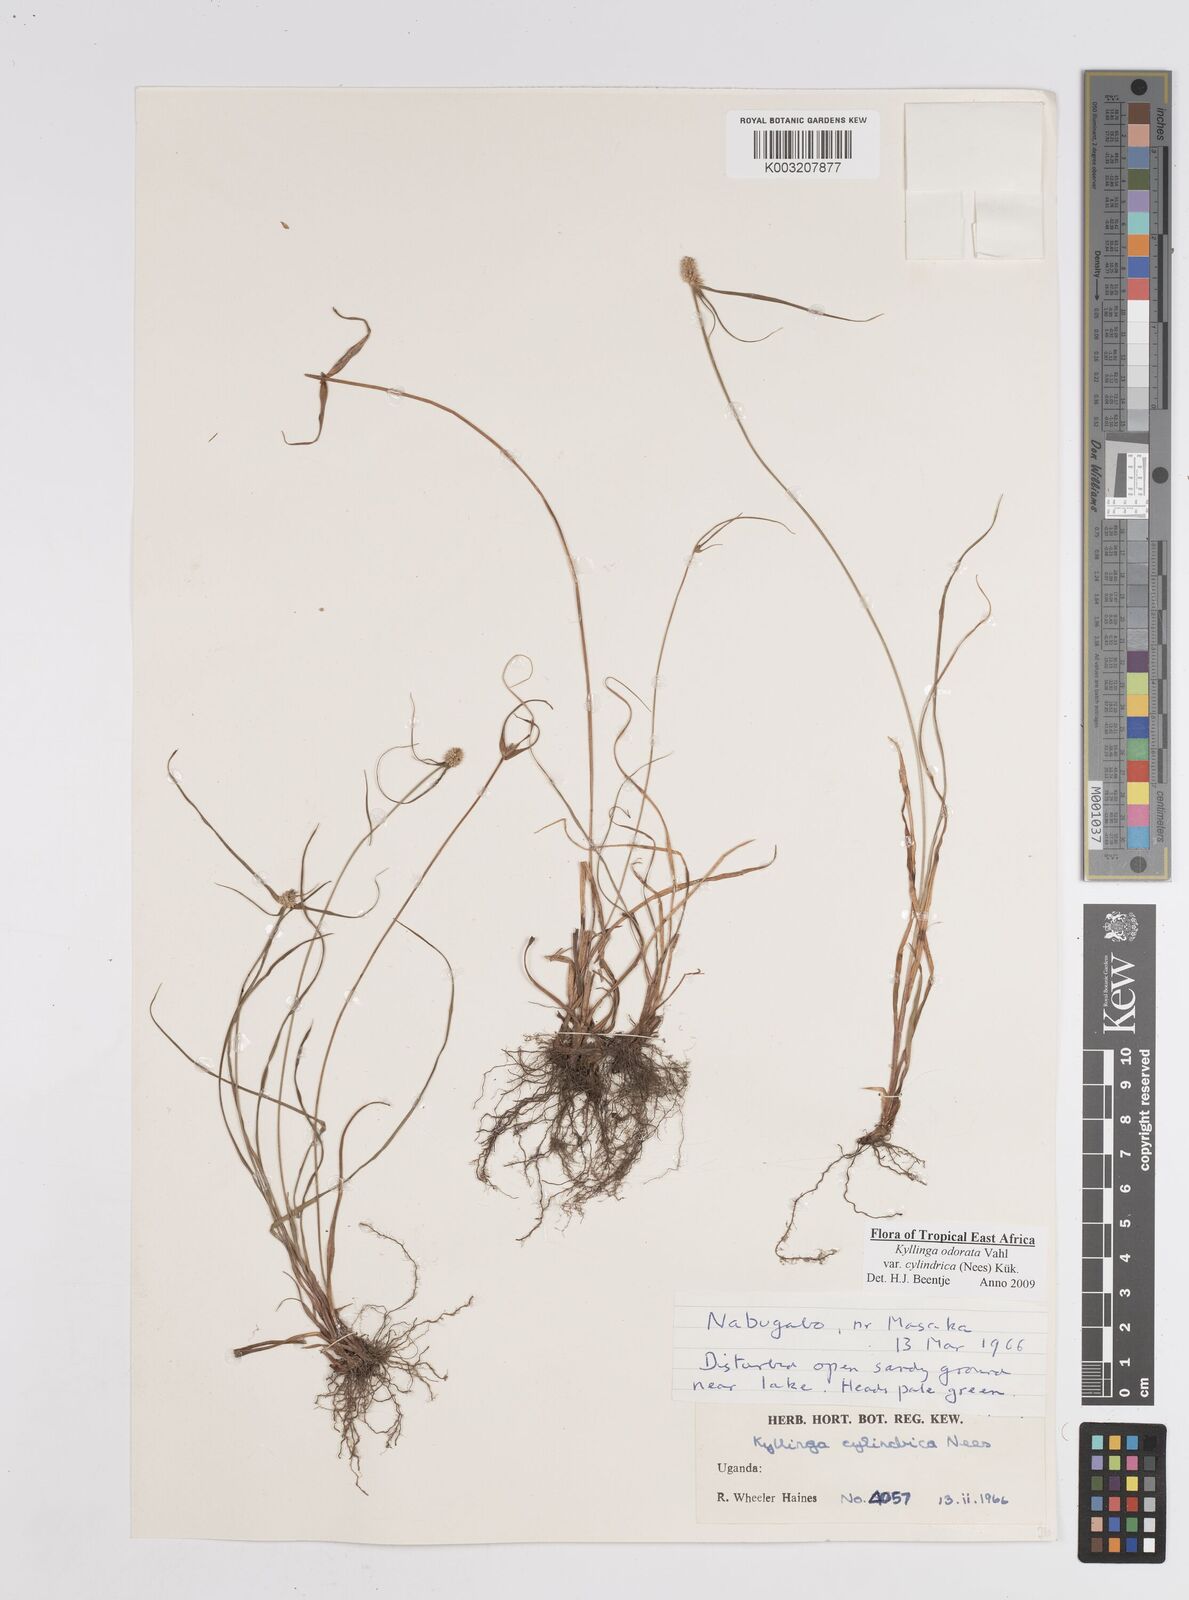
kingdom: Plantae
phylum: Tracheophyta
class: Liliopsida
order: Poales
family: Cyperaceae
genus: Cyperus
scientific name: Cyperus
